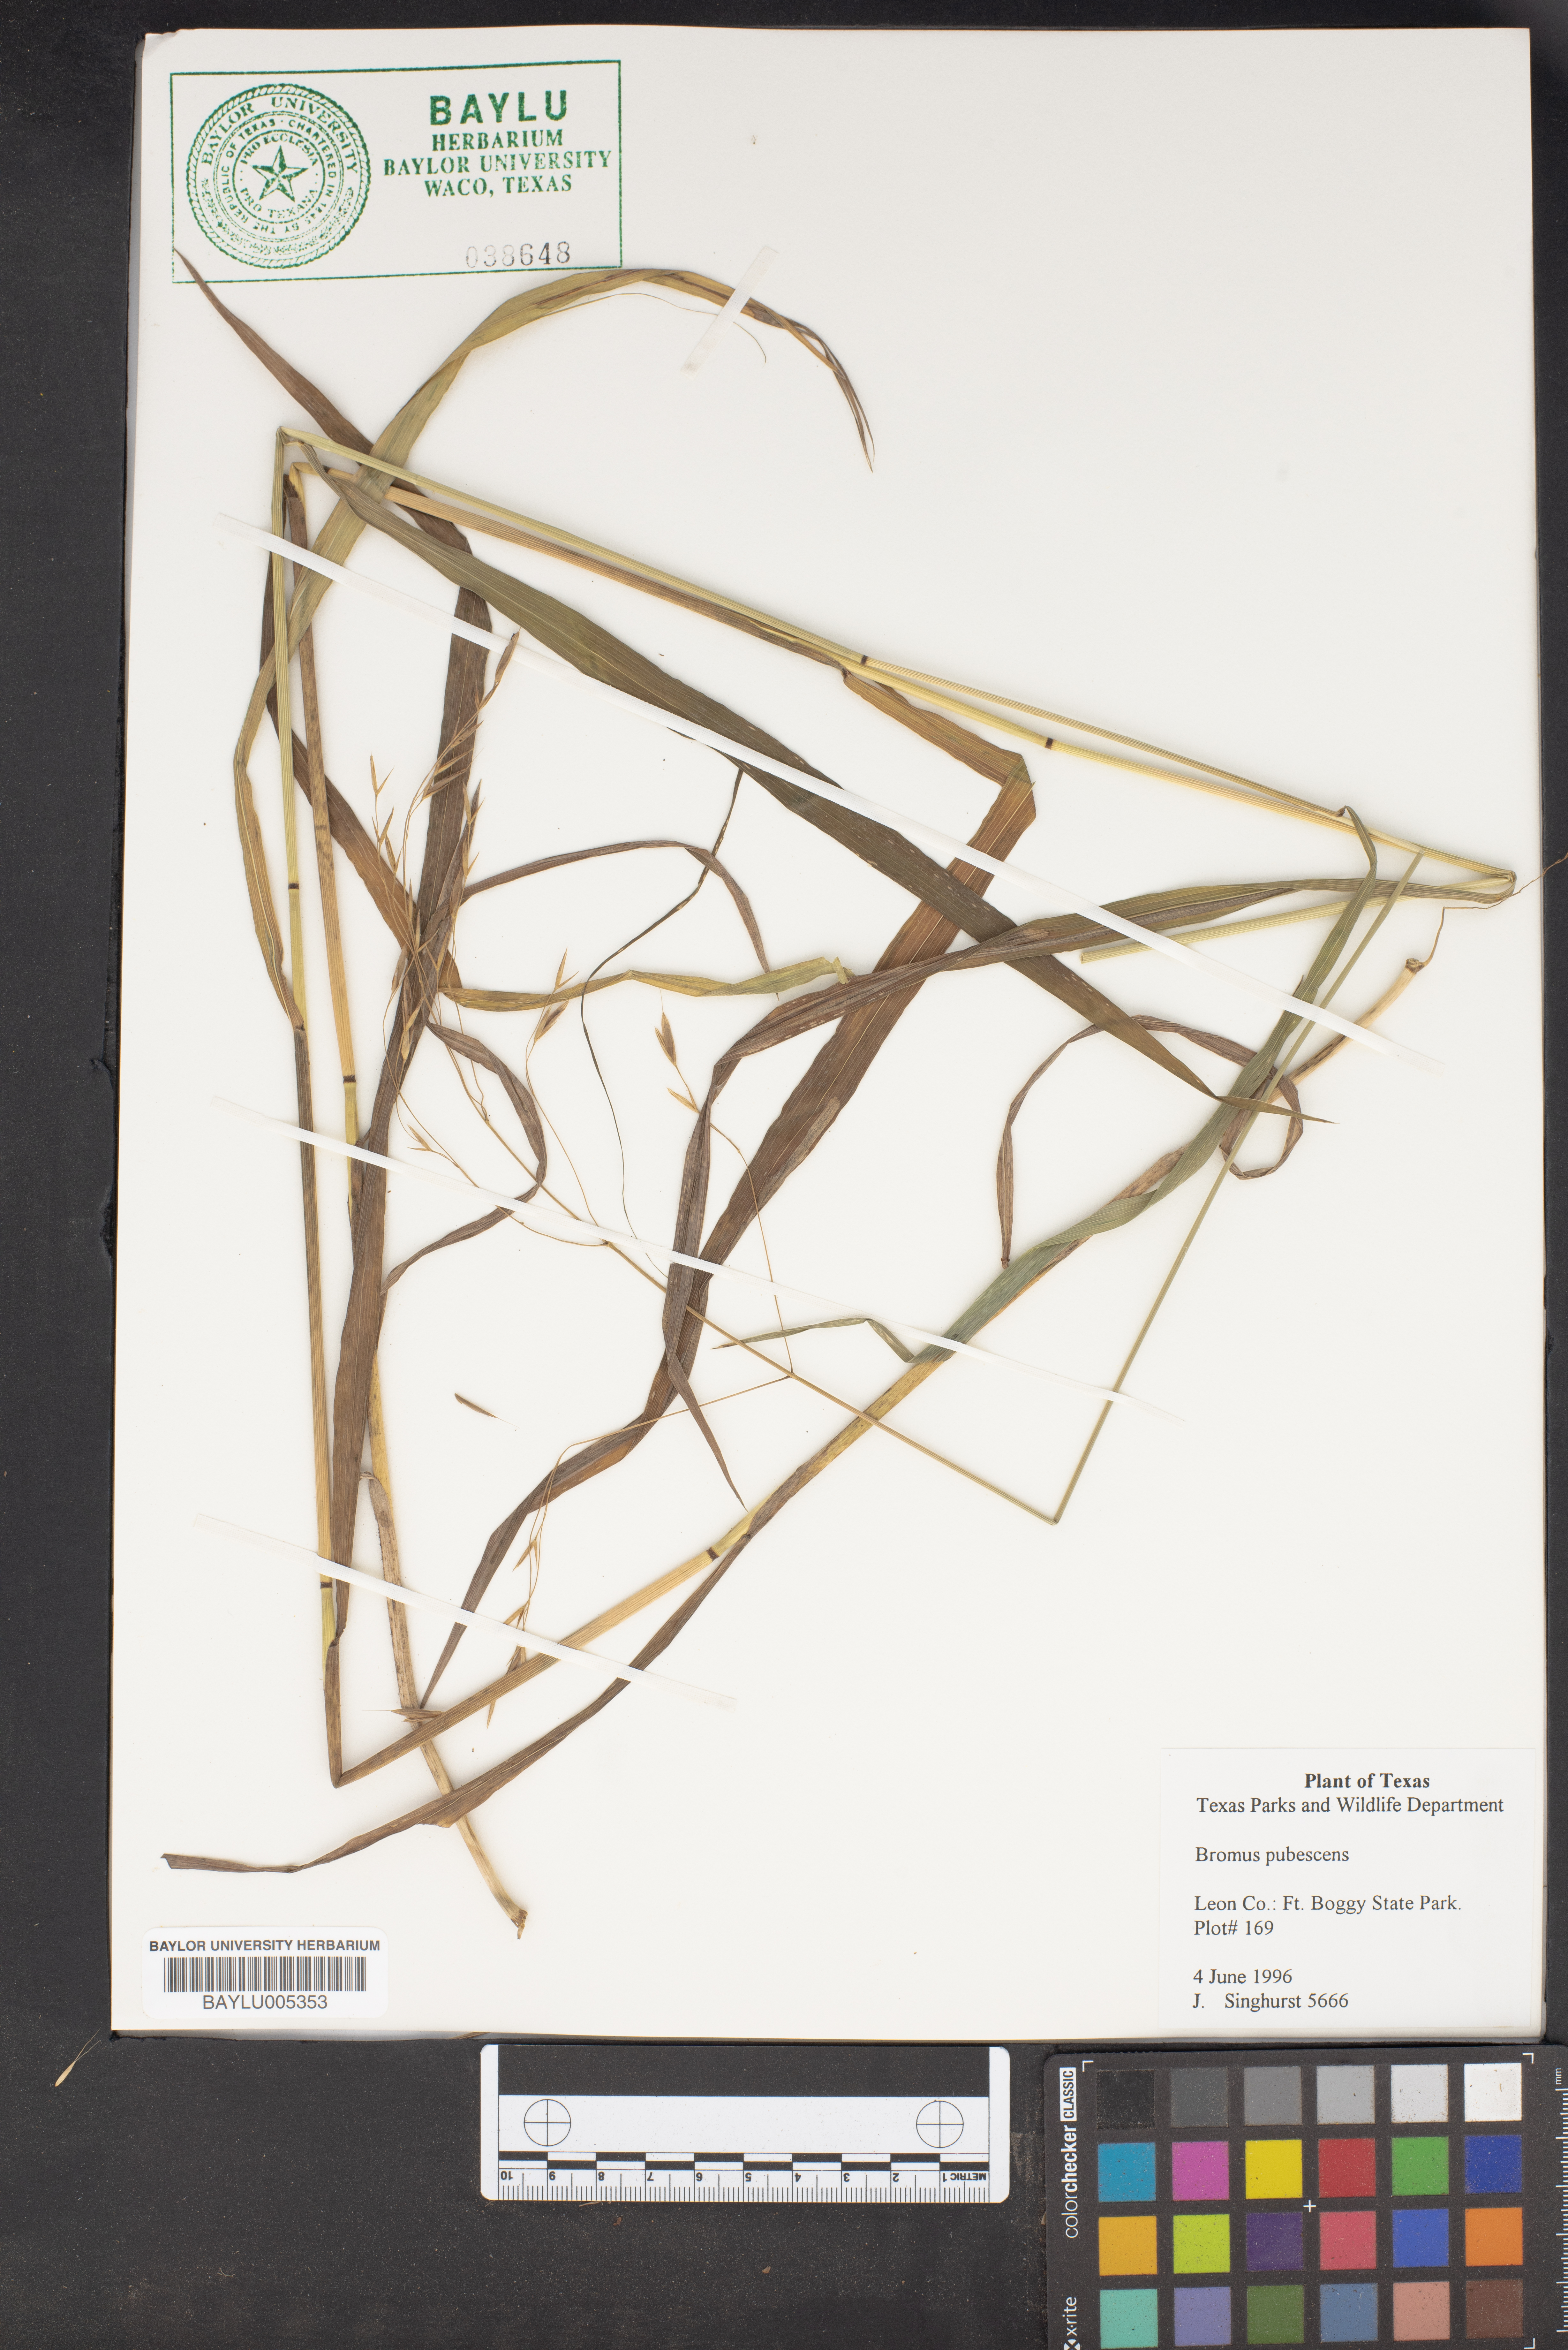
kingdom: Plantae
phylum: Tracheophyta
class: Liliopsida
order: Poales
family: Poaceae
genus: Bromus
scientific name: Bromus pubescens
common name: Hairy wood brome grass
